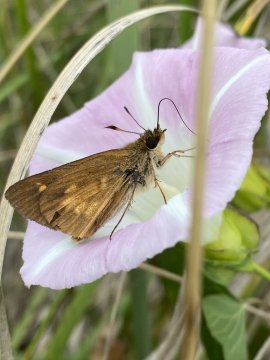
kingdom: Animalia
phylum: Arthropoda
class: Insecta
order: Lepidoptera
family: Hesperiidae
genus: Poanes
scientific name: Poanes viator
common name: Broad-winged Skipper
